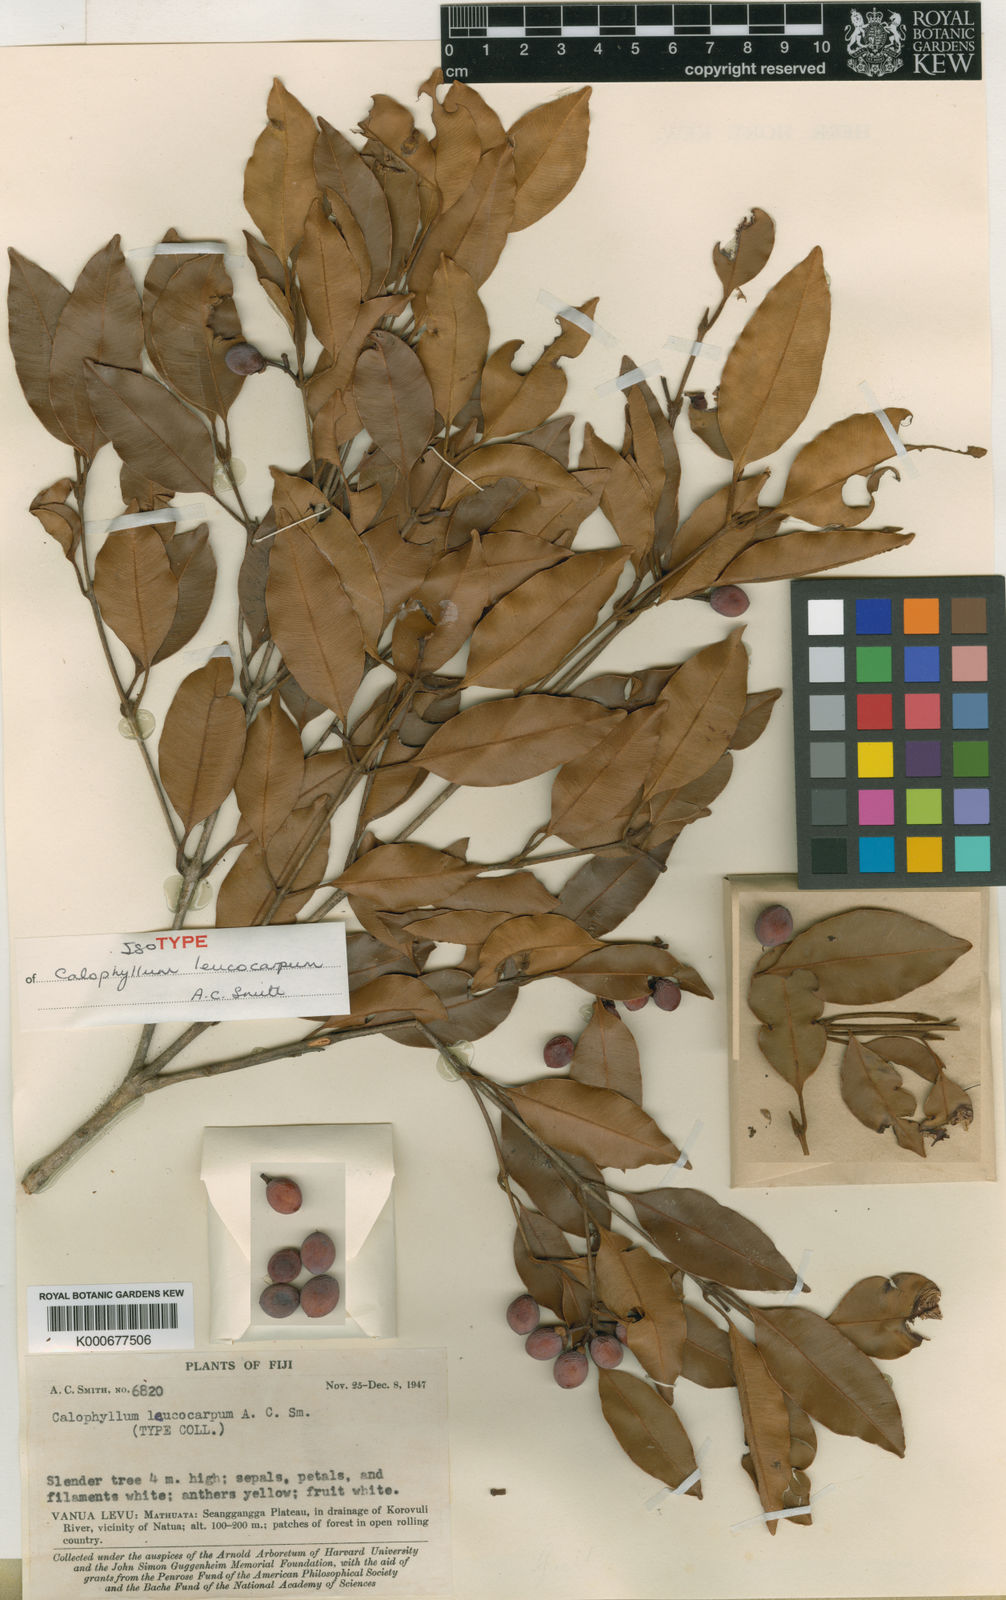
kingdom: Plantae
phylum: Tracheophyta
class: Magnoliopsida
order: Malpighiales
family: Calophyllaceae
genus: Calophyllum
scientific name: Calophyllum leucocarpum
